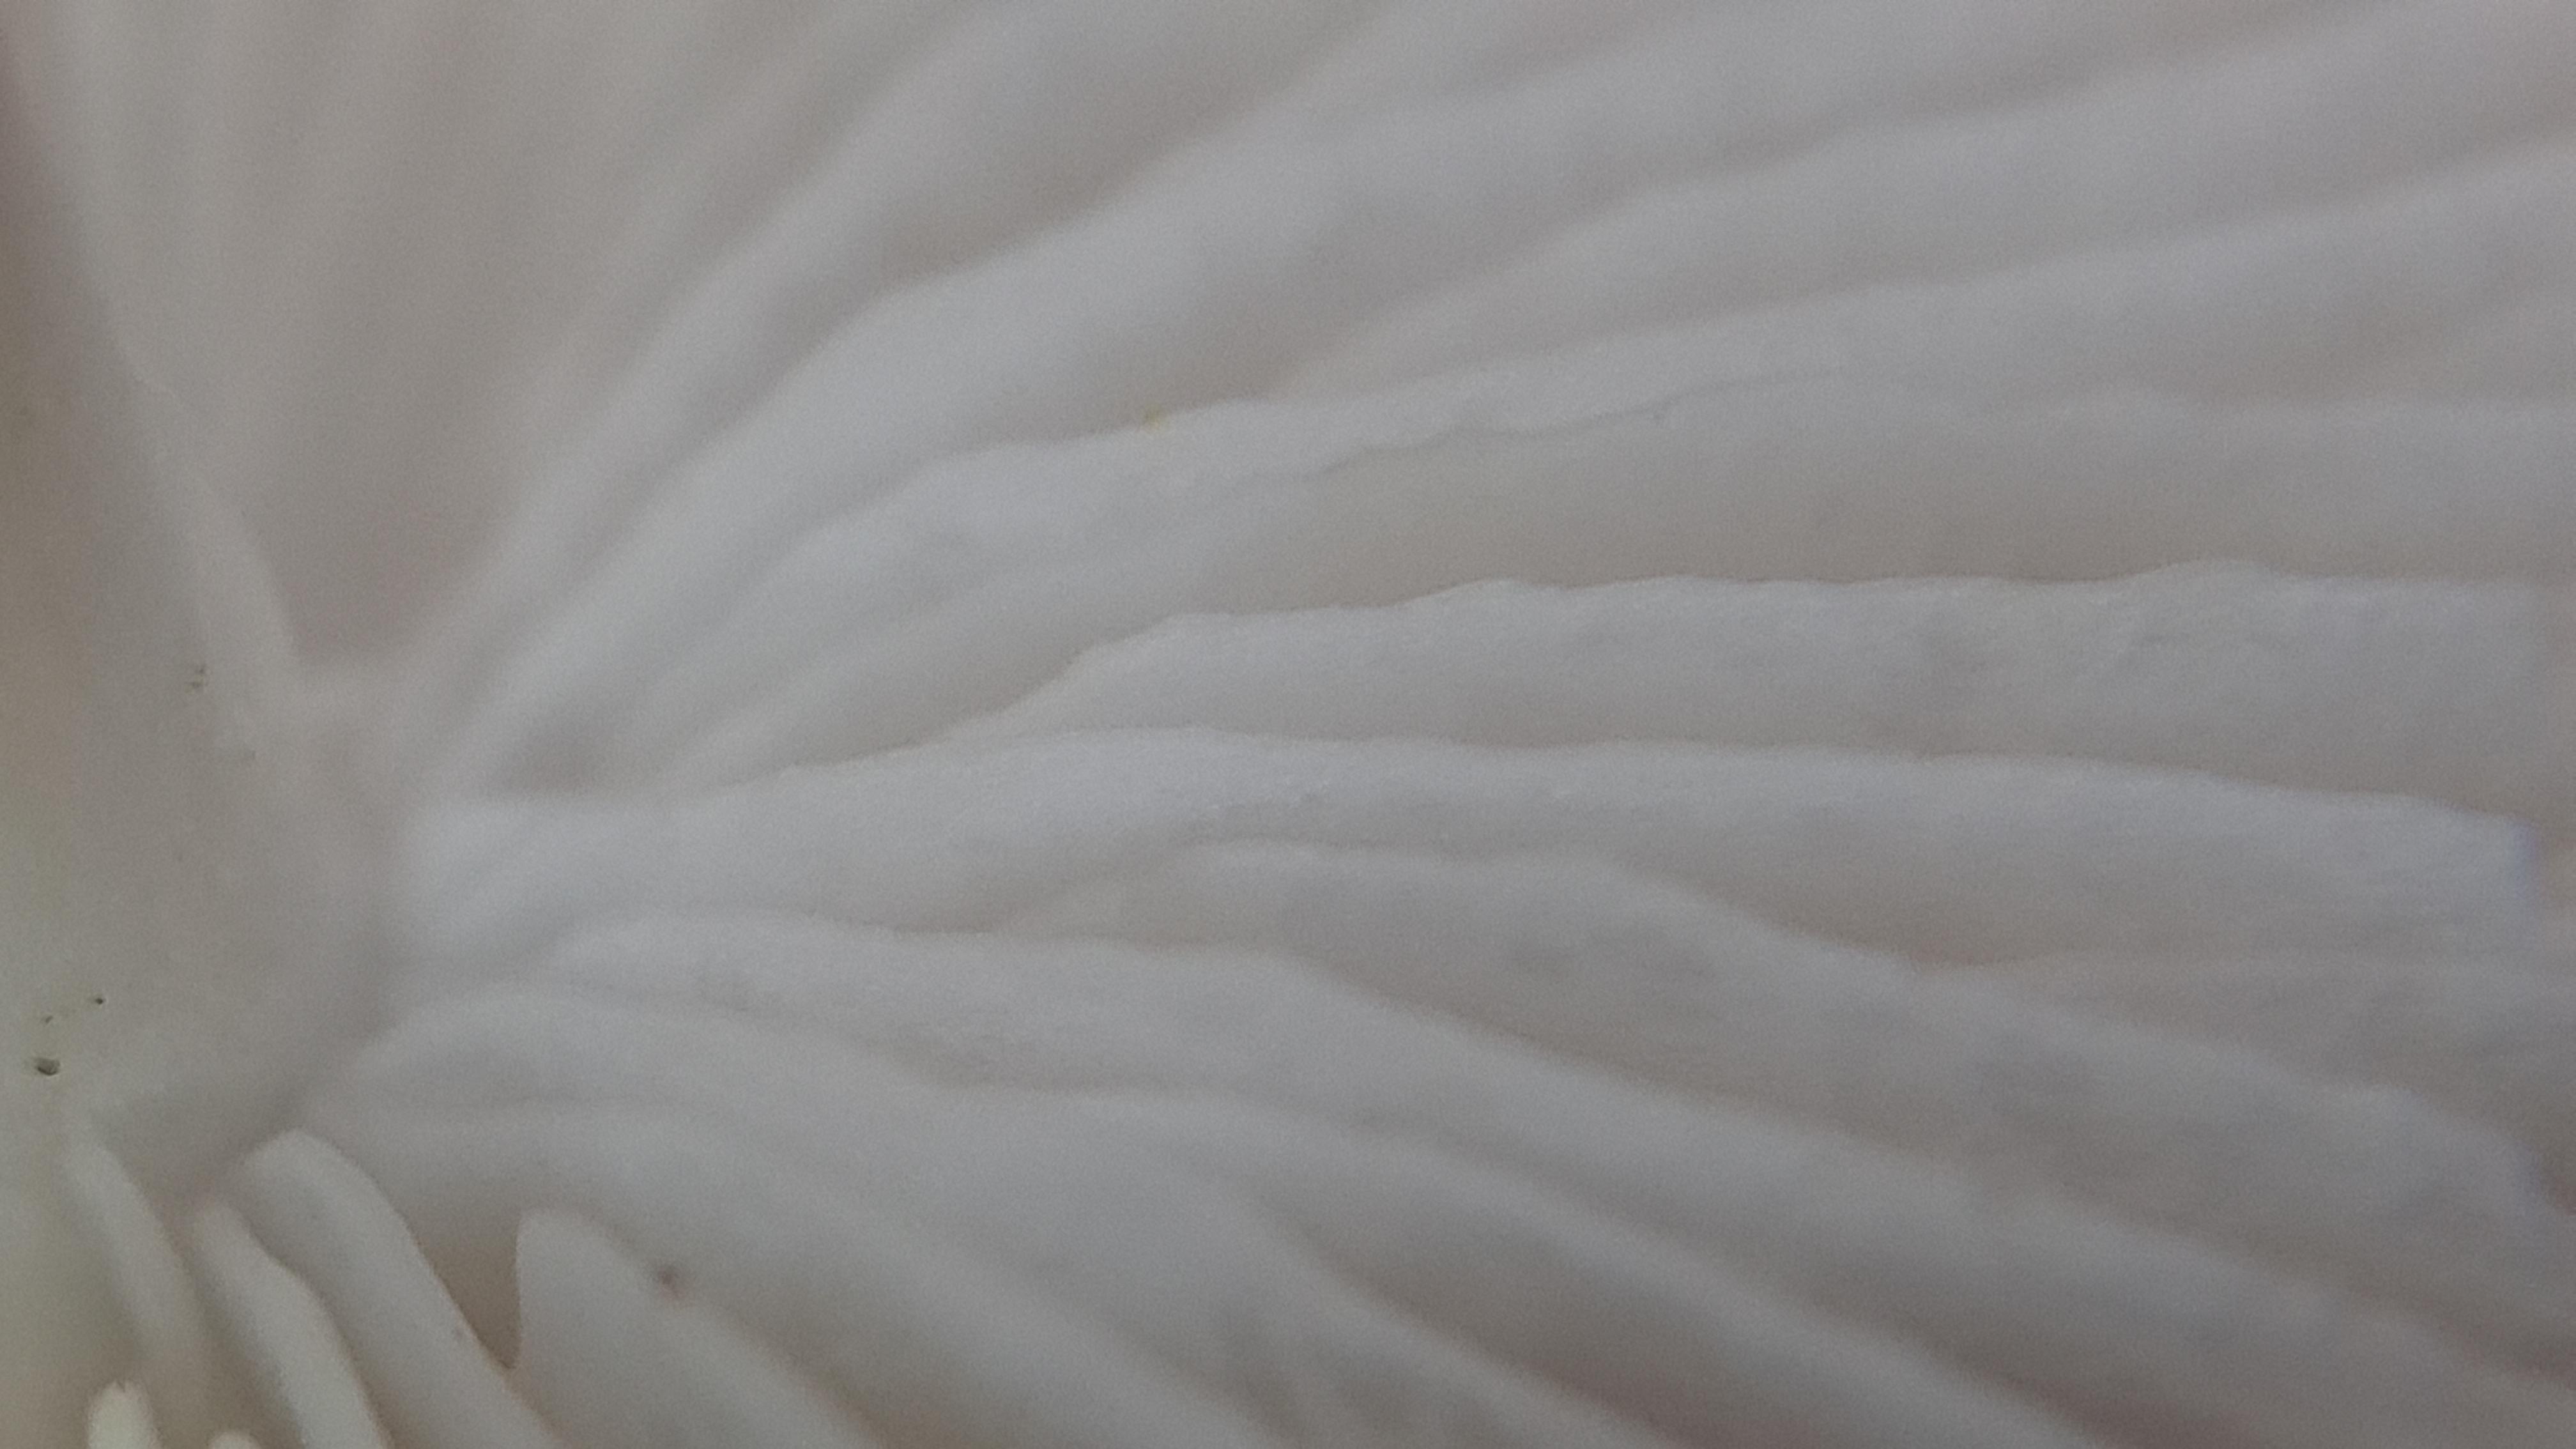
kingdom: Fungi
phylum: Basidiomycota
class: Agaricomycetes
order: Agaricales
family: Porotheleaceae
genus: Hydropodia
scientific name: Hydropodia subalpina
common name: vår-fnugfod
